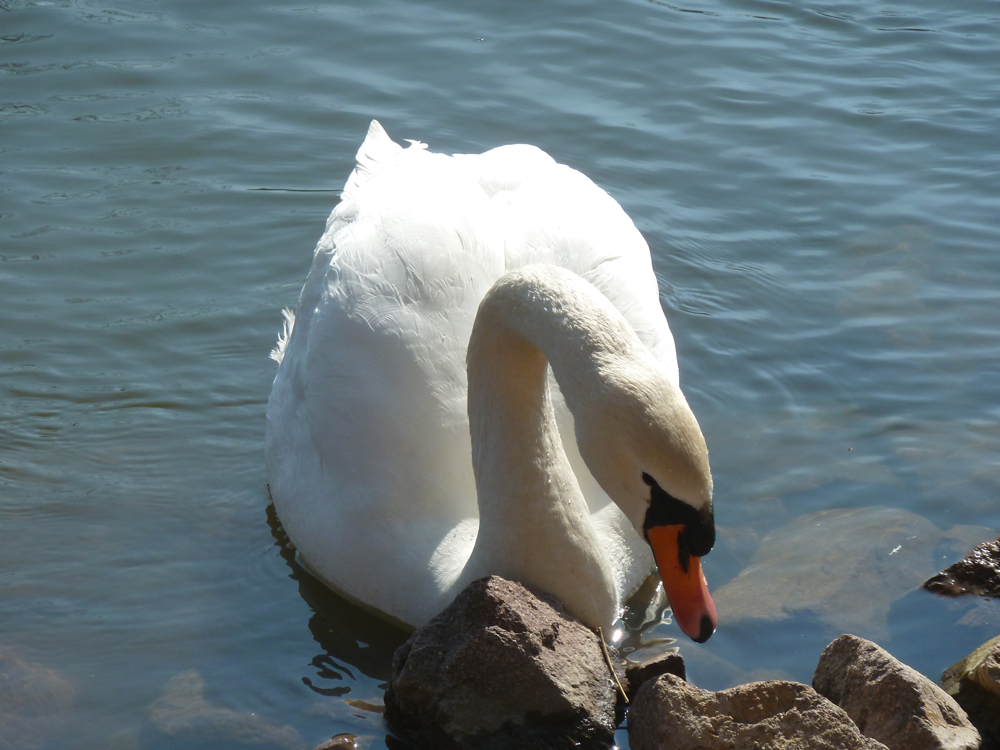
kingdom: Animalia
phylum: Chordata
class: Aves
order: Anseriformes
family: Anatidae
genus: Cygnus
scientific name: Cygnus olor
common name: Mute swan
